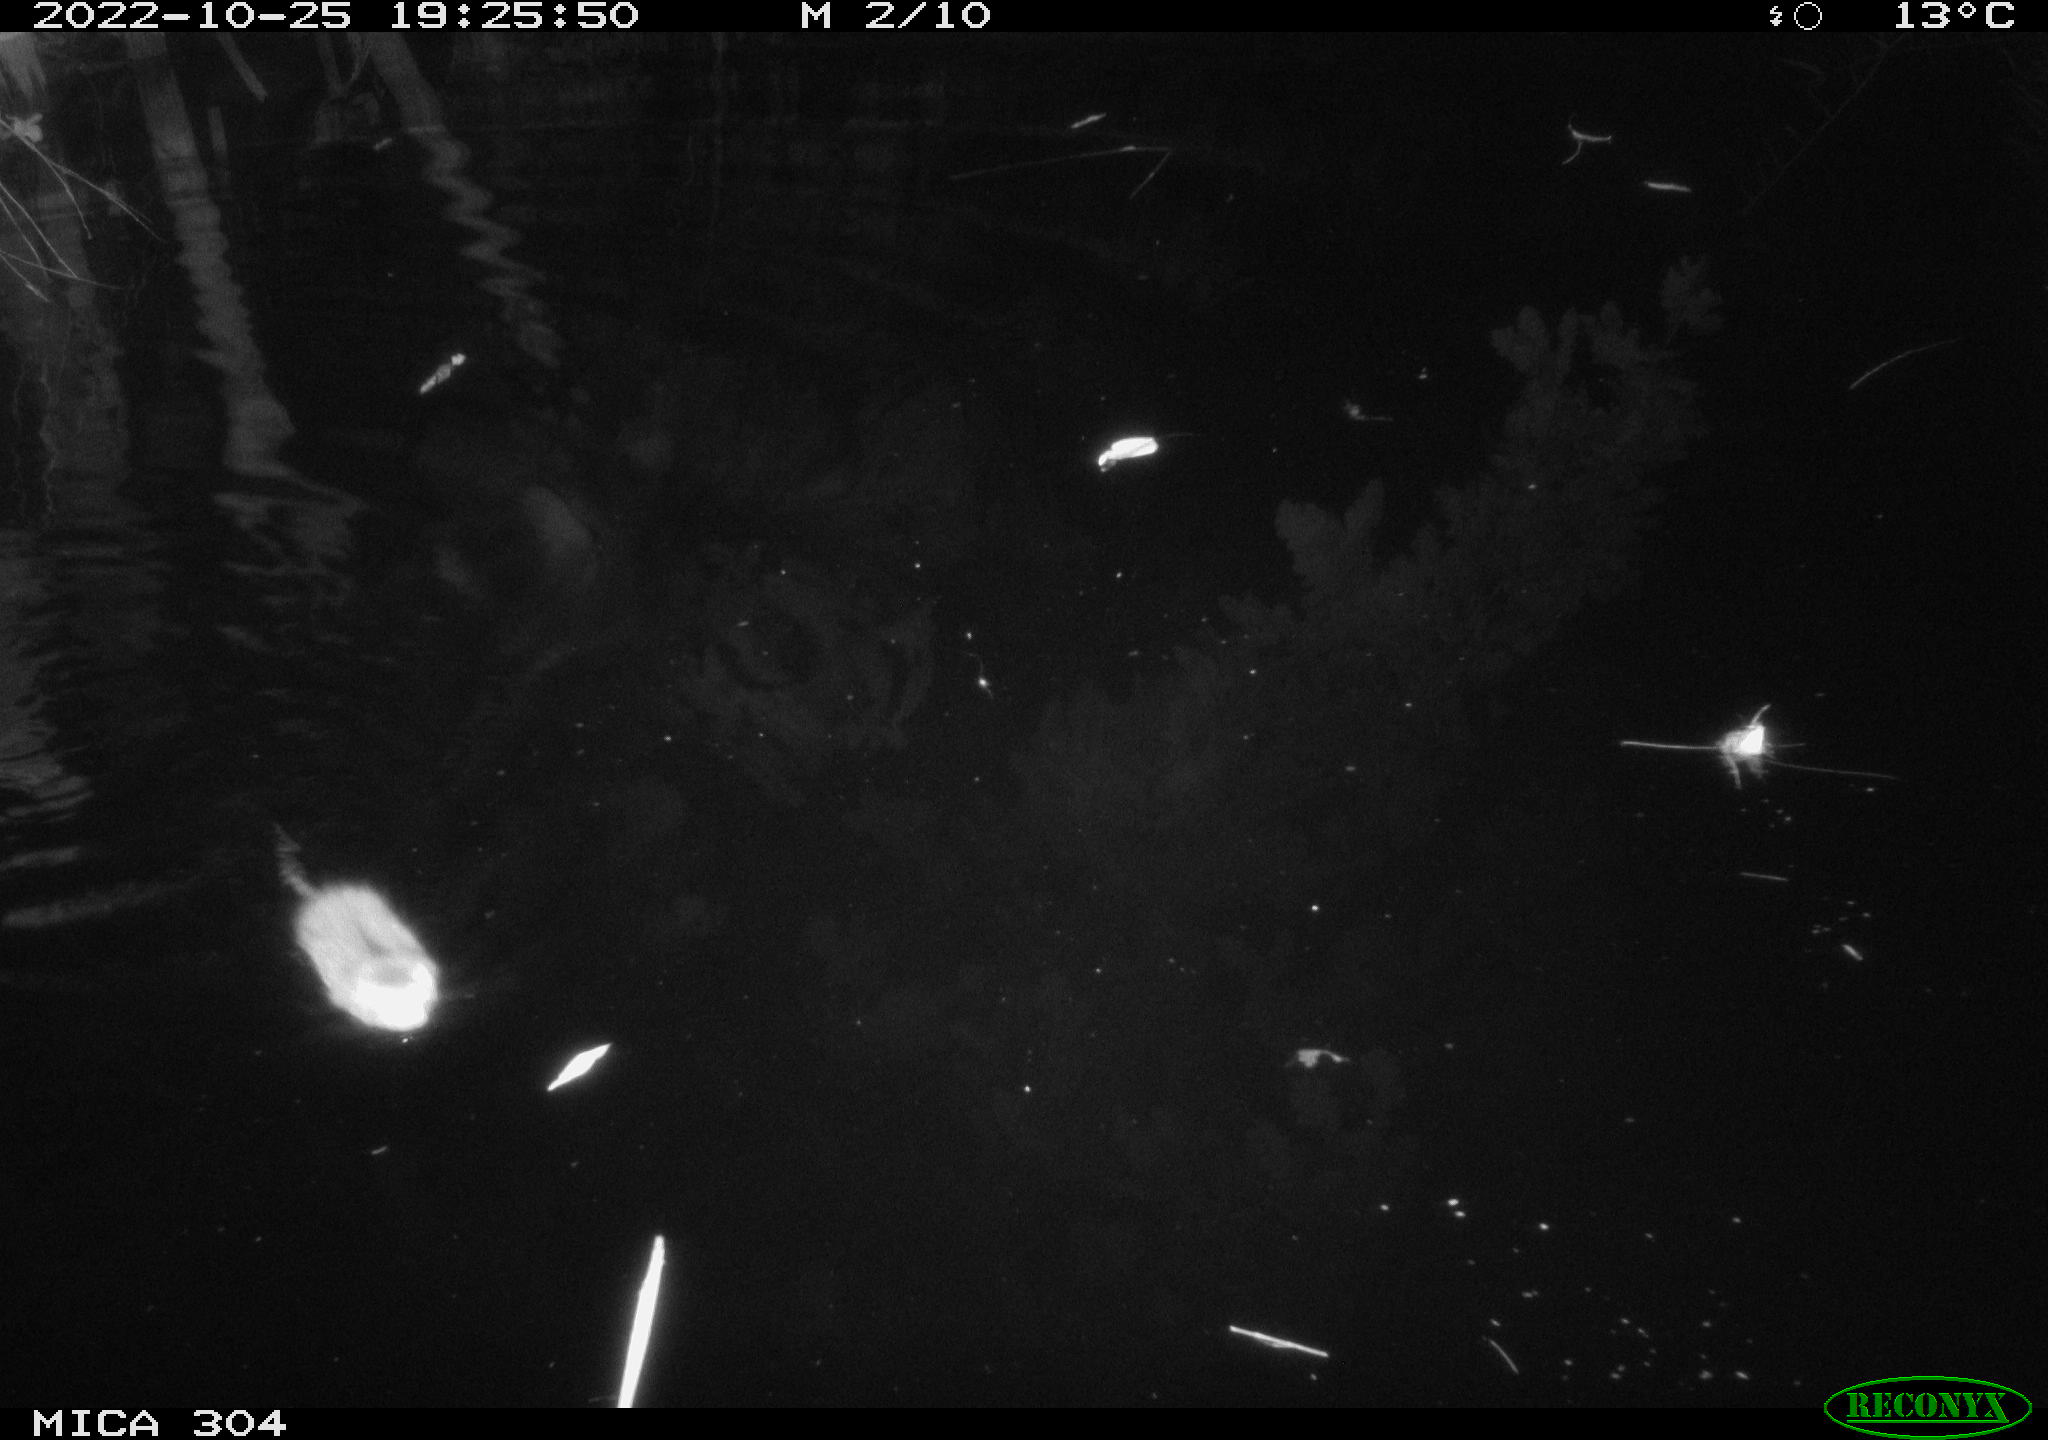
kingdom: Animalia
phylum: Chordata
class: Mammalia
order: Rodentia
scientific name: Rodentia
